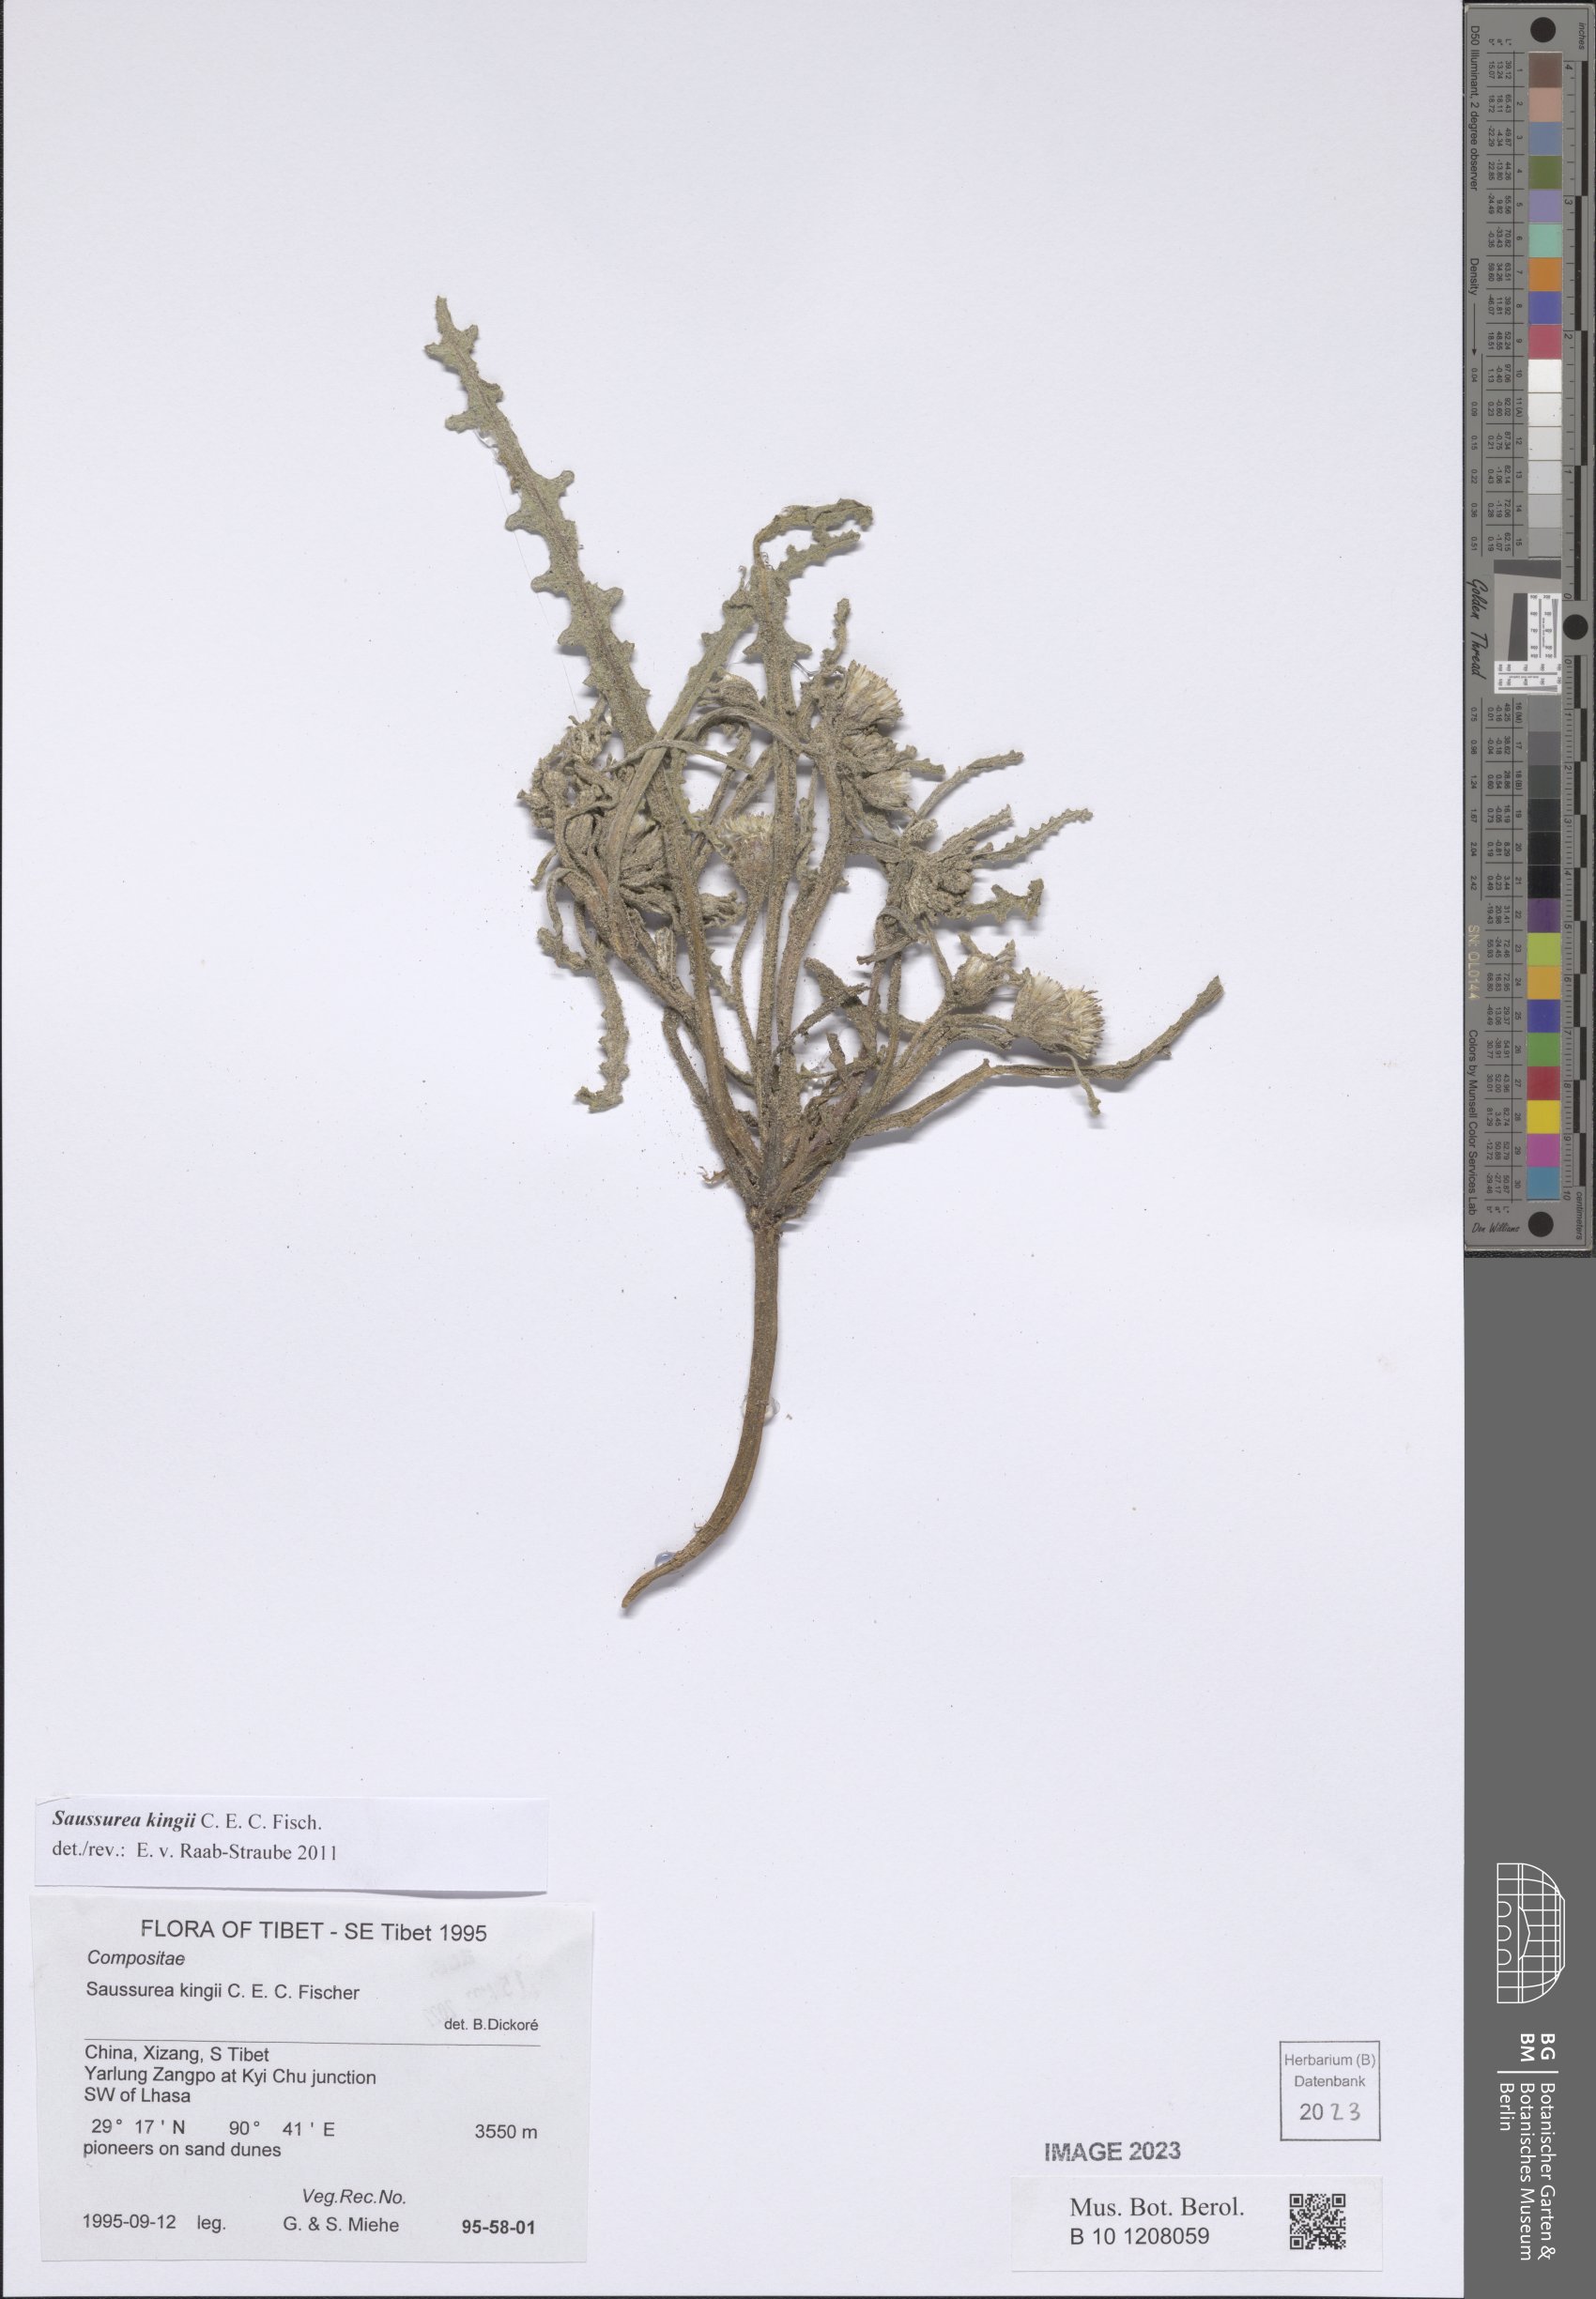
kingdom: Plantae
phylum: Tracheophyta
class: Magnoliopsida
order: Asterales
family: Asteraceae
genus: Saussurea
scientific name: Saussurea kingii
